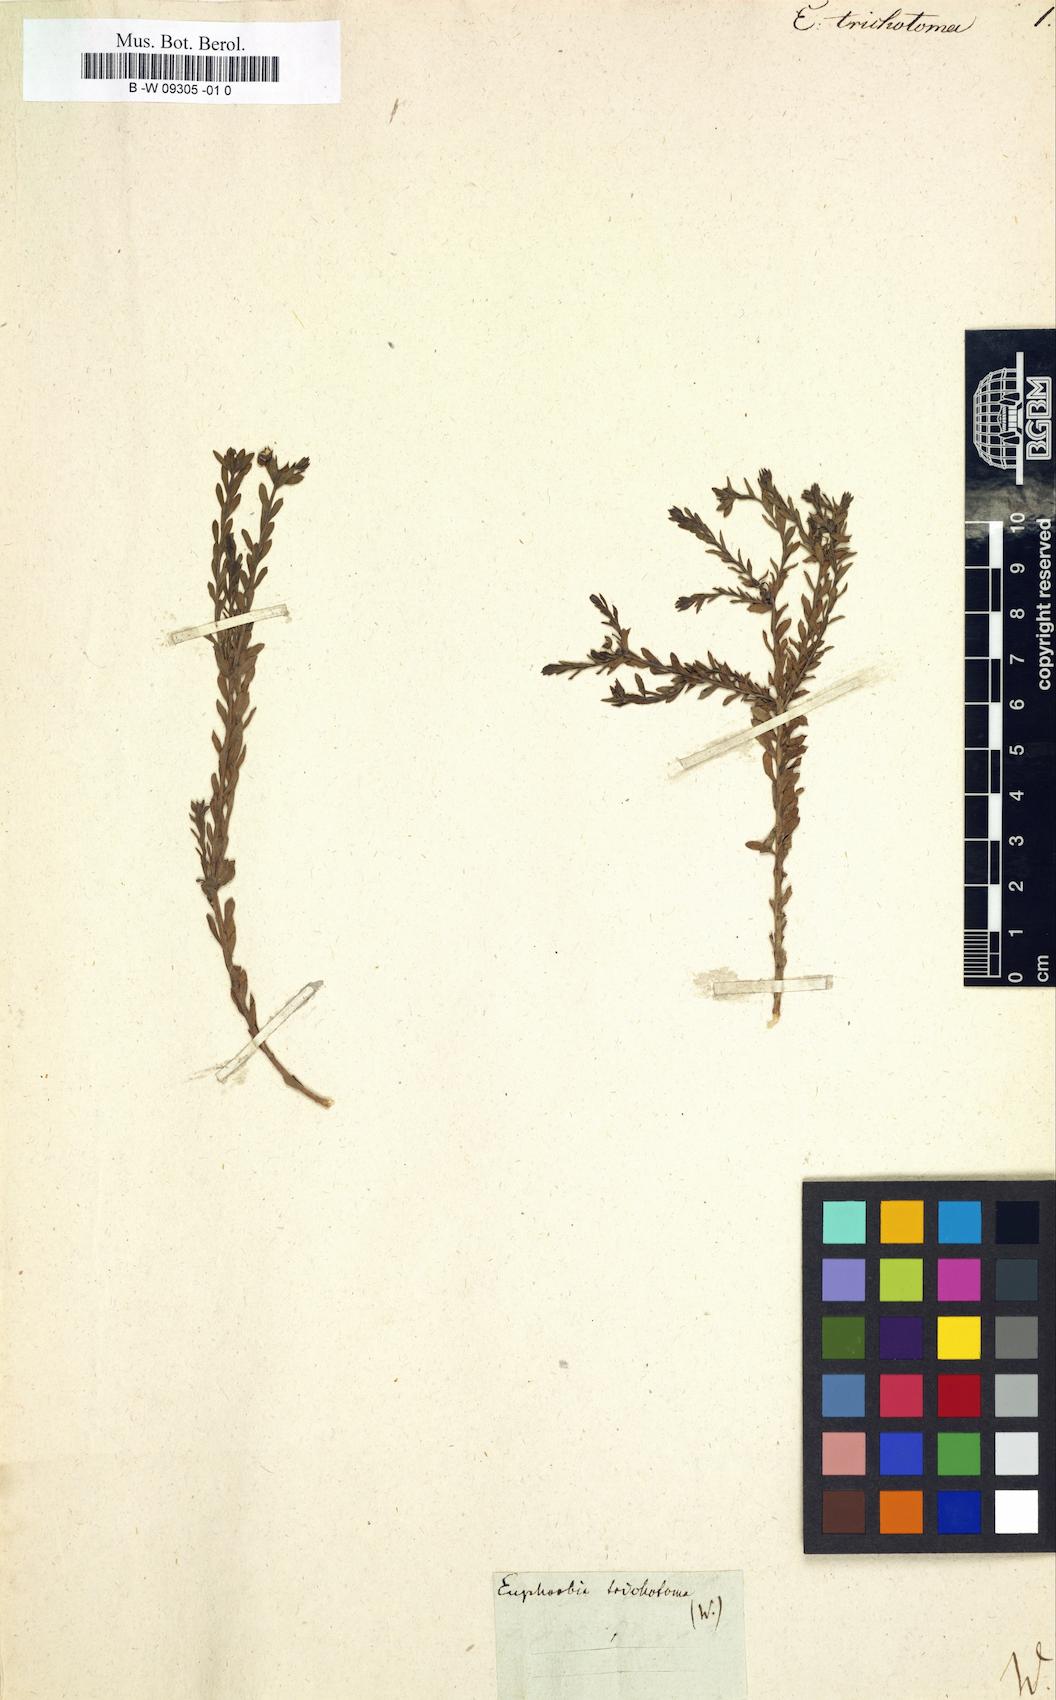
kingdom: Plantae
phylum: Tracheophyta
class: Magnoliopsida
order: Malpighiales
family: Euphorbiaceae
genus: Euphorbia
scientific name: Euphorbia trichotoma
